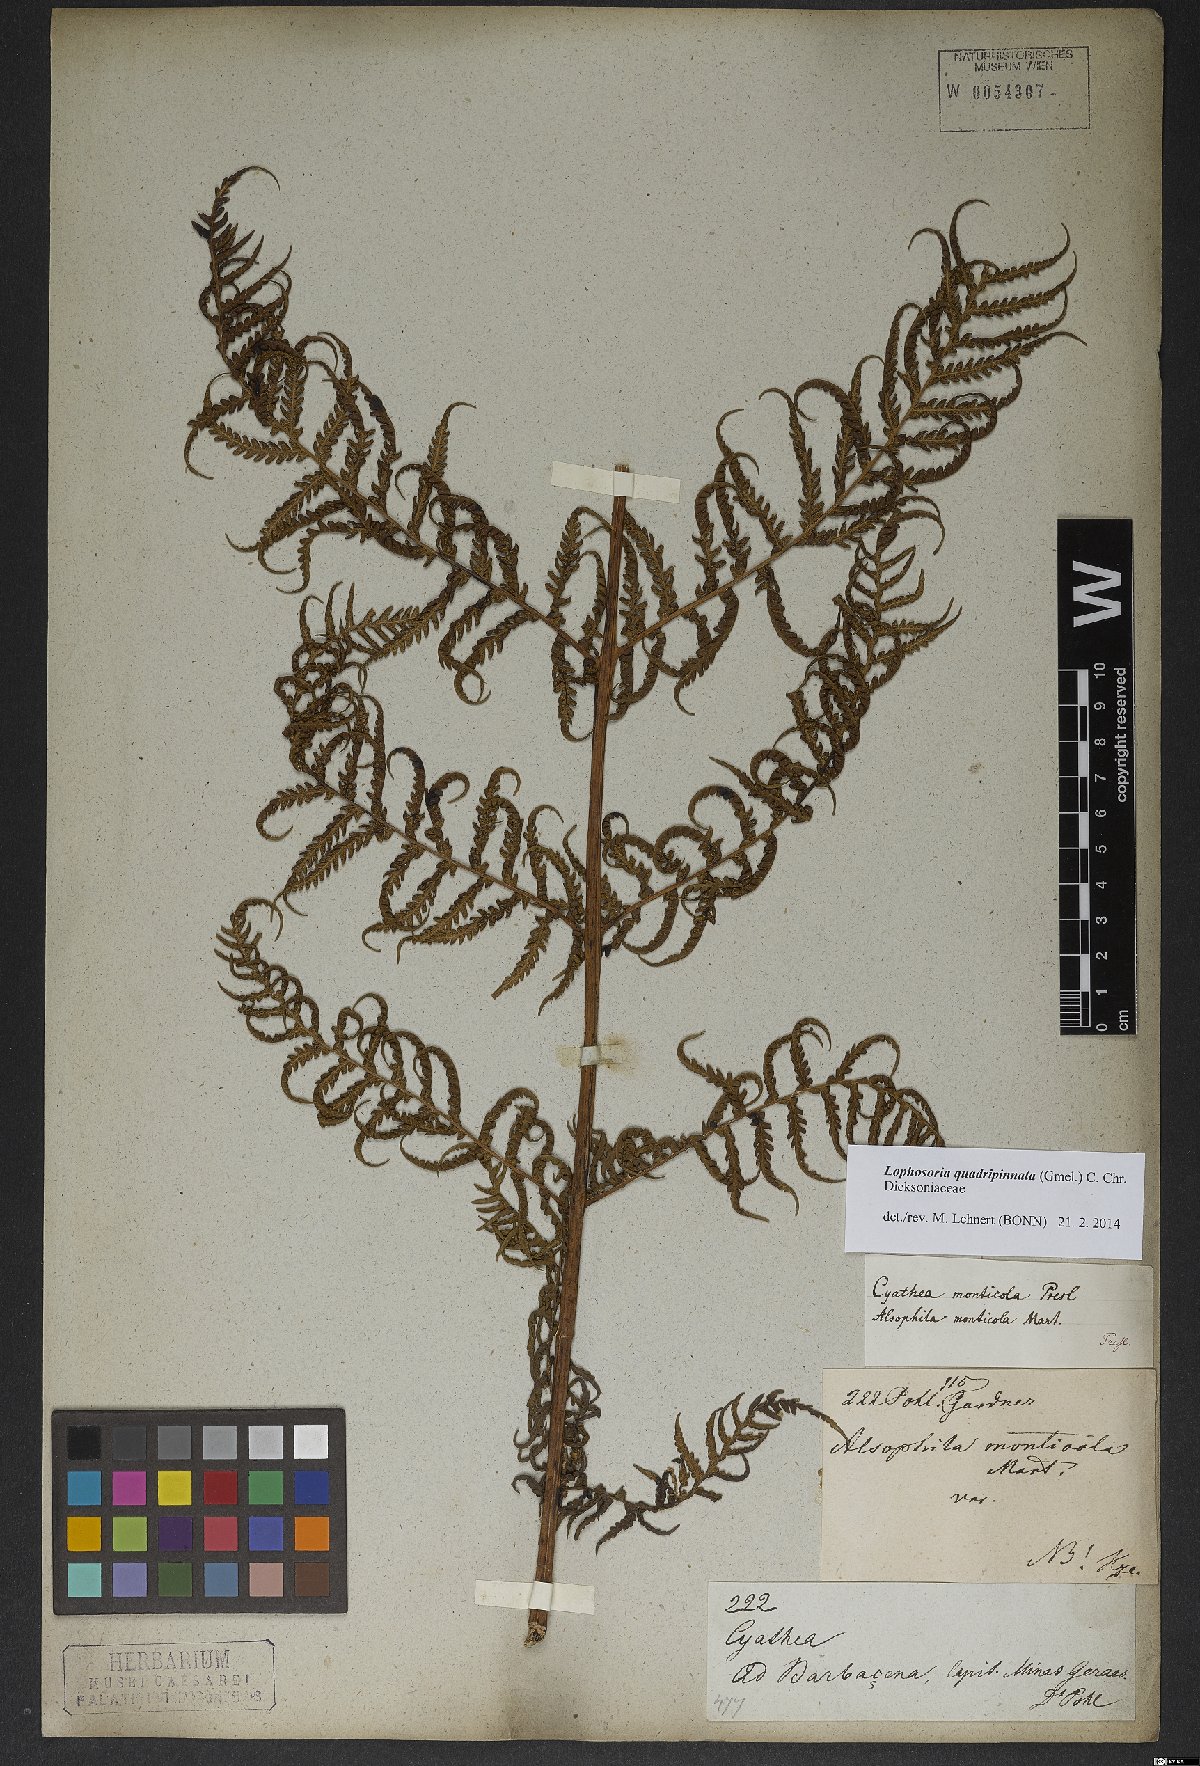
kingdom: Plantae
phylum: Tracheophyta
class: Polypodiopsida
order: Cyatheales
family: Dicksoniaceae
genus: Lophosoria
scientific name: Lophosoria quadripinnata
